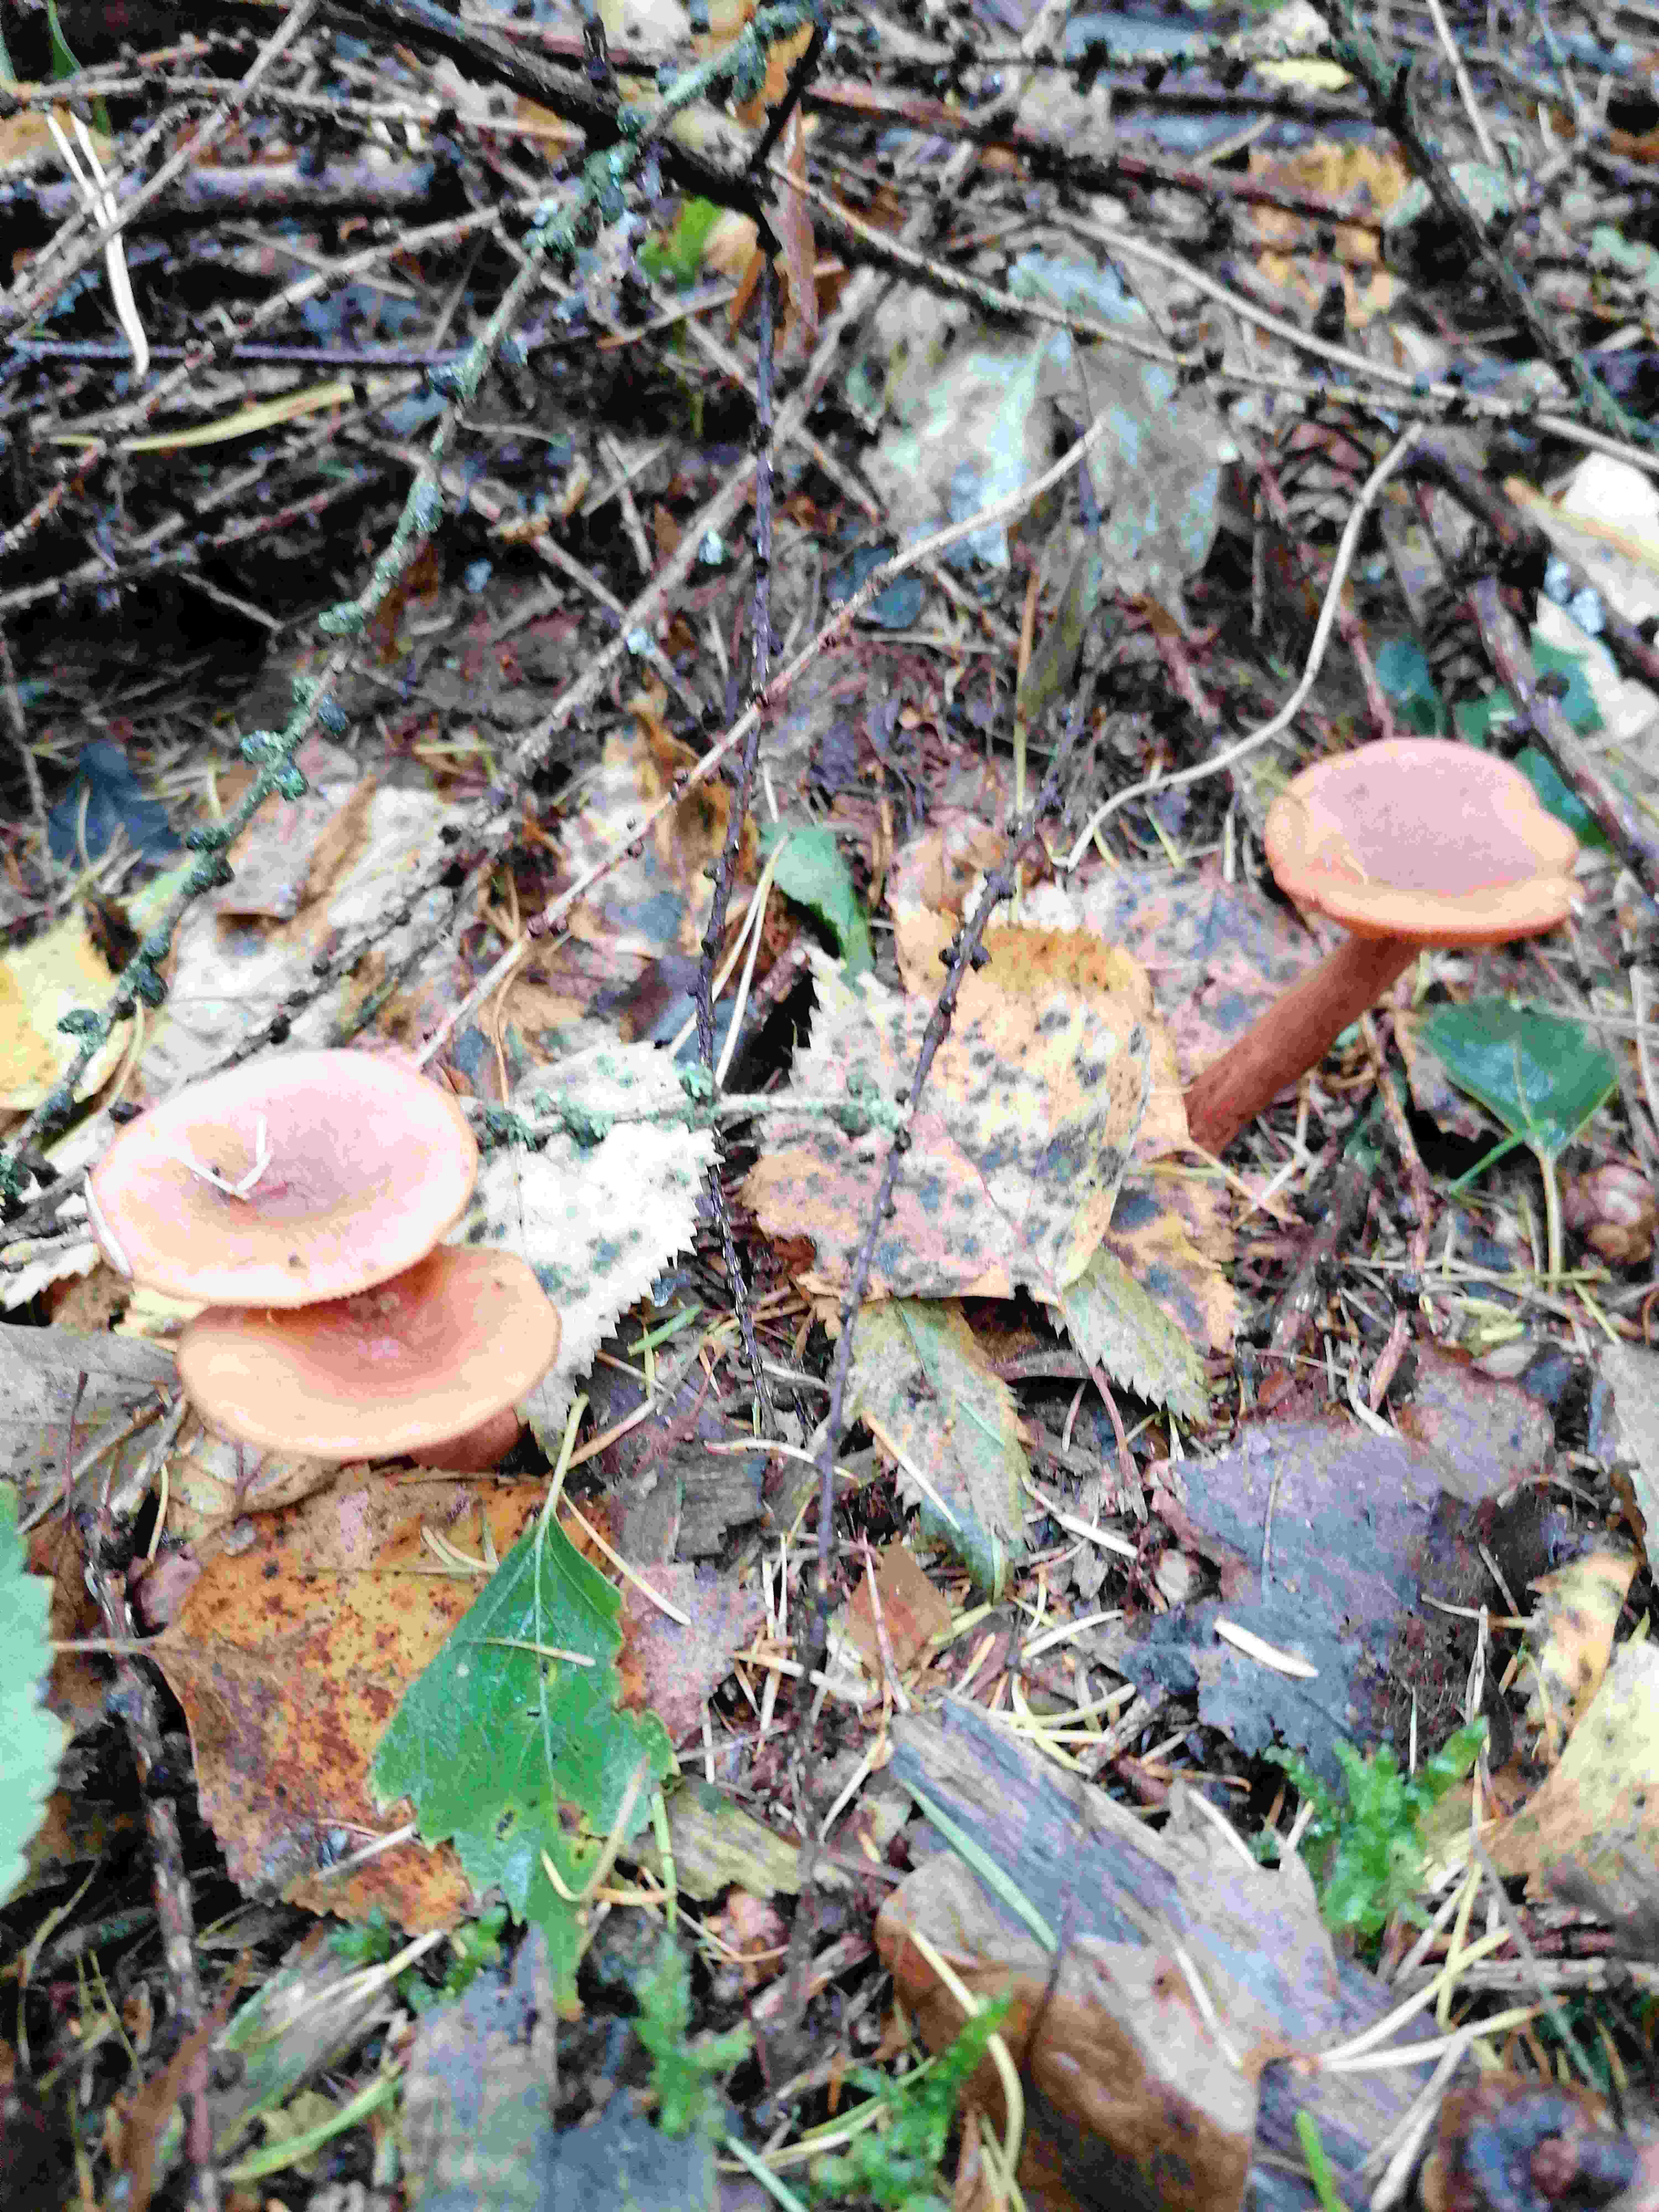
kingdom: Fungi
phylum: Basidiomycota
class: Agaricomycetes
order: Russulales
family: Russulaceae
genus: Lactarius
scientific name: Lactarius
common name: mælkehat
